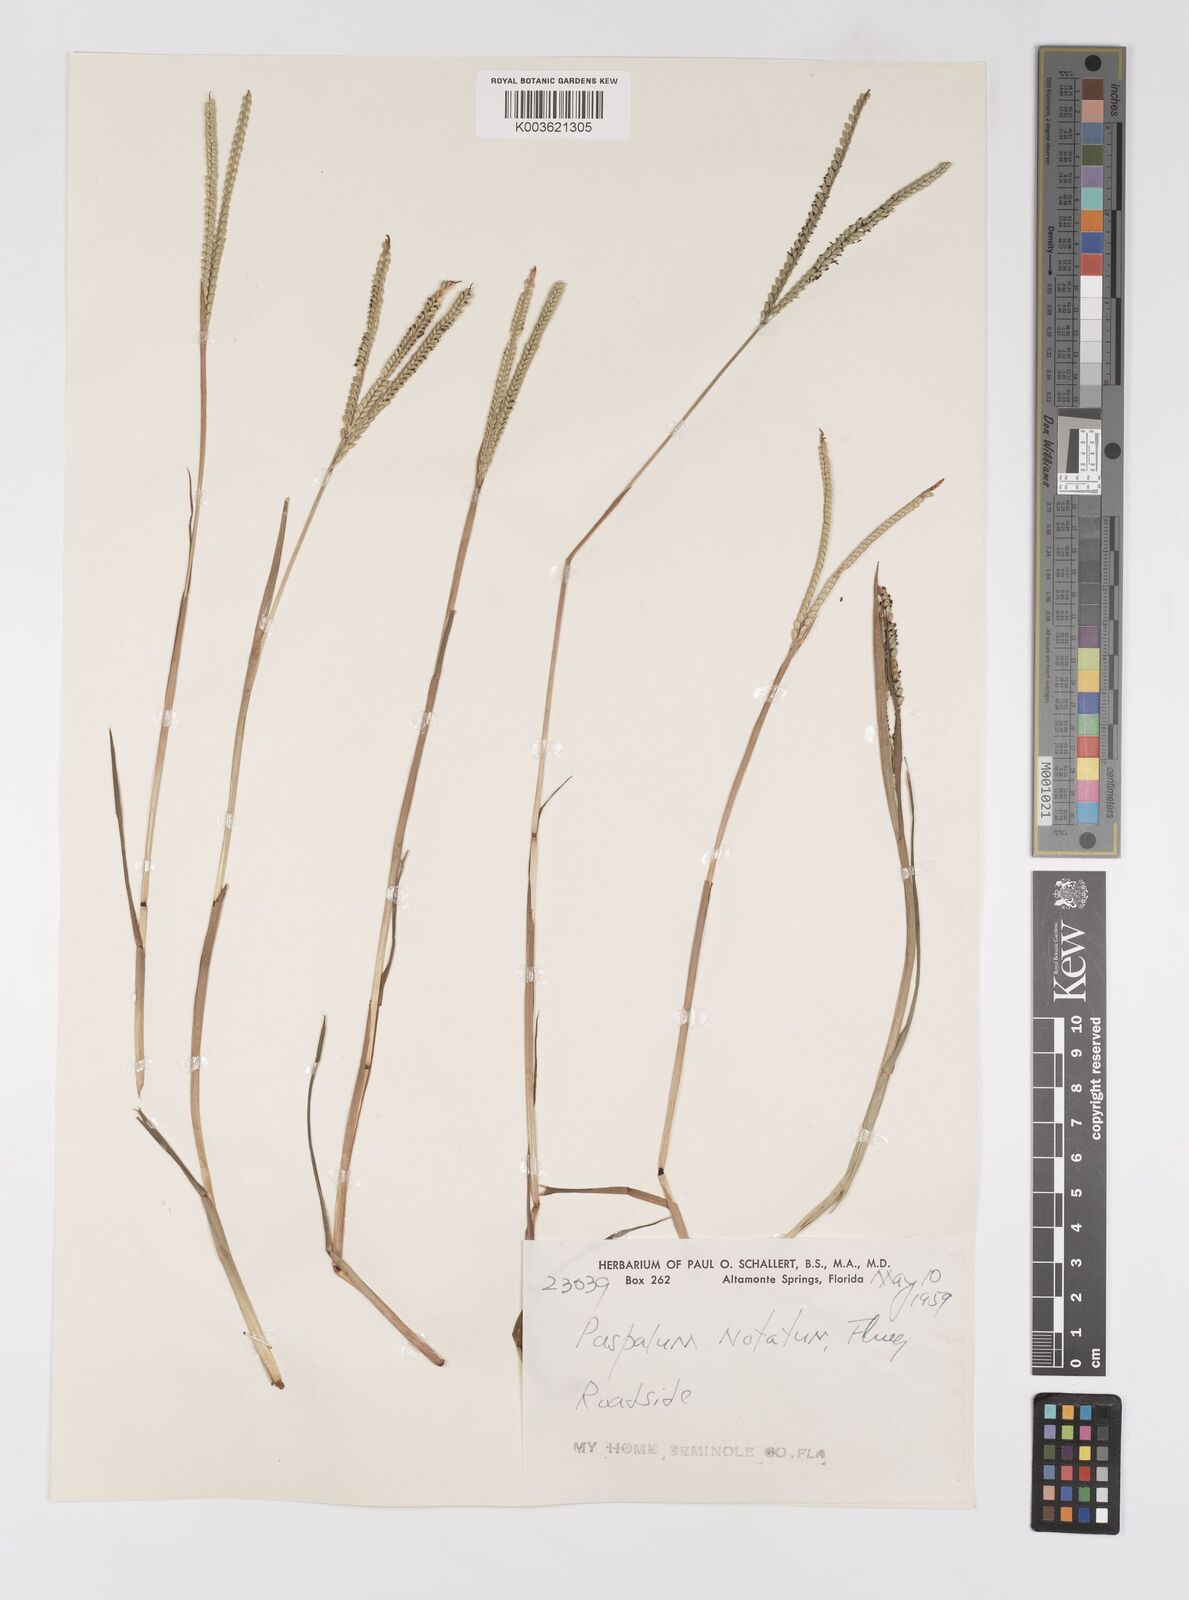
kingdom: Plantae
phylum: Tracheophyta
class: Liliopsida
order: Poales
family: Poaceae
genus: Paspalum
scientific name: Paspalum notatum
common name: Bahiagrass
